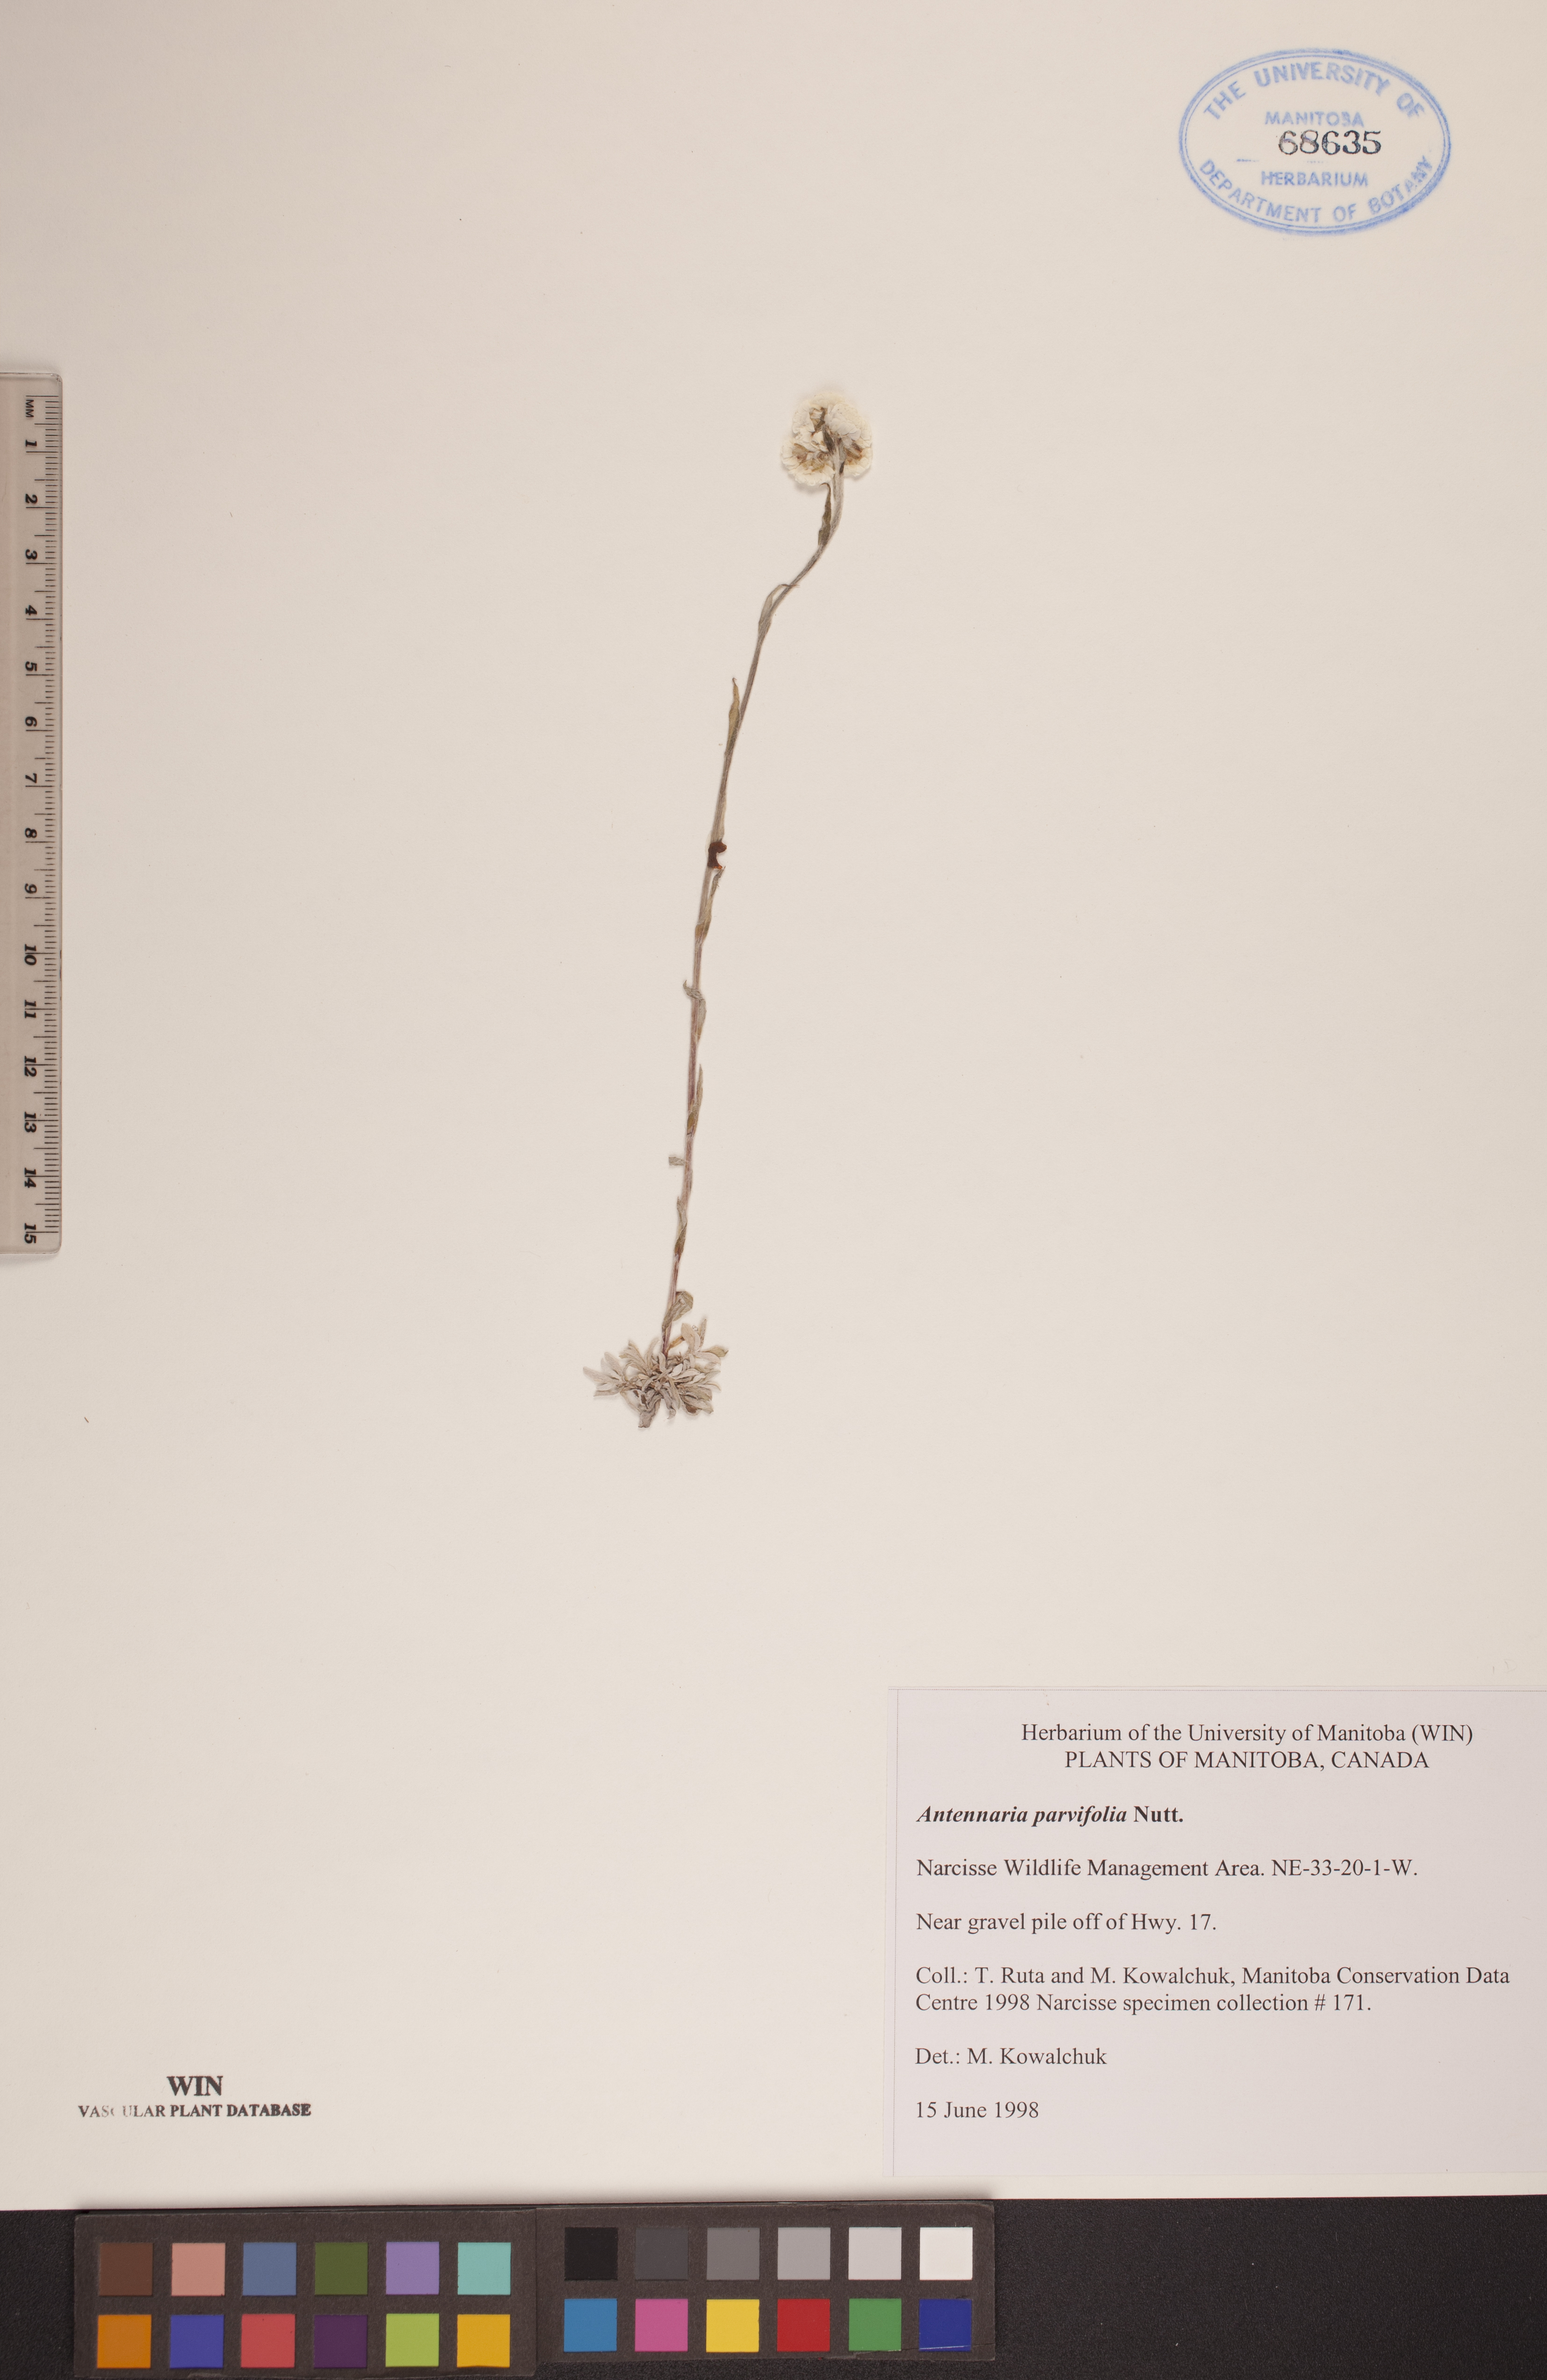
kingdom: Plantae
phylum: Tracheophyta
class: Magnoliopsida
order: Asterales
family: Asteraceae
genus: Antennaria
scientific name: Antennaria parvifolia
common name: Nuttall's pussytoes
